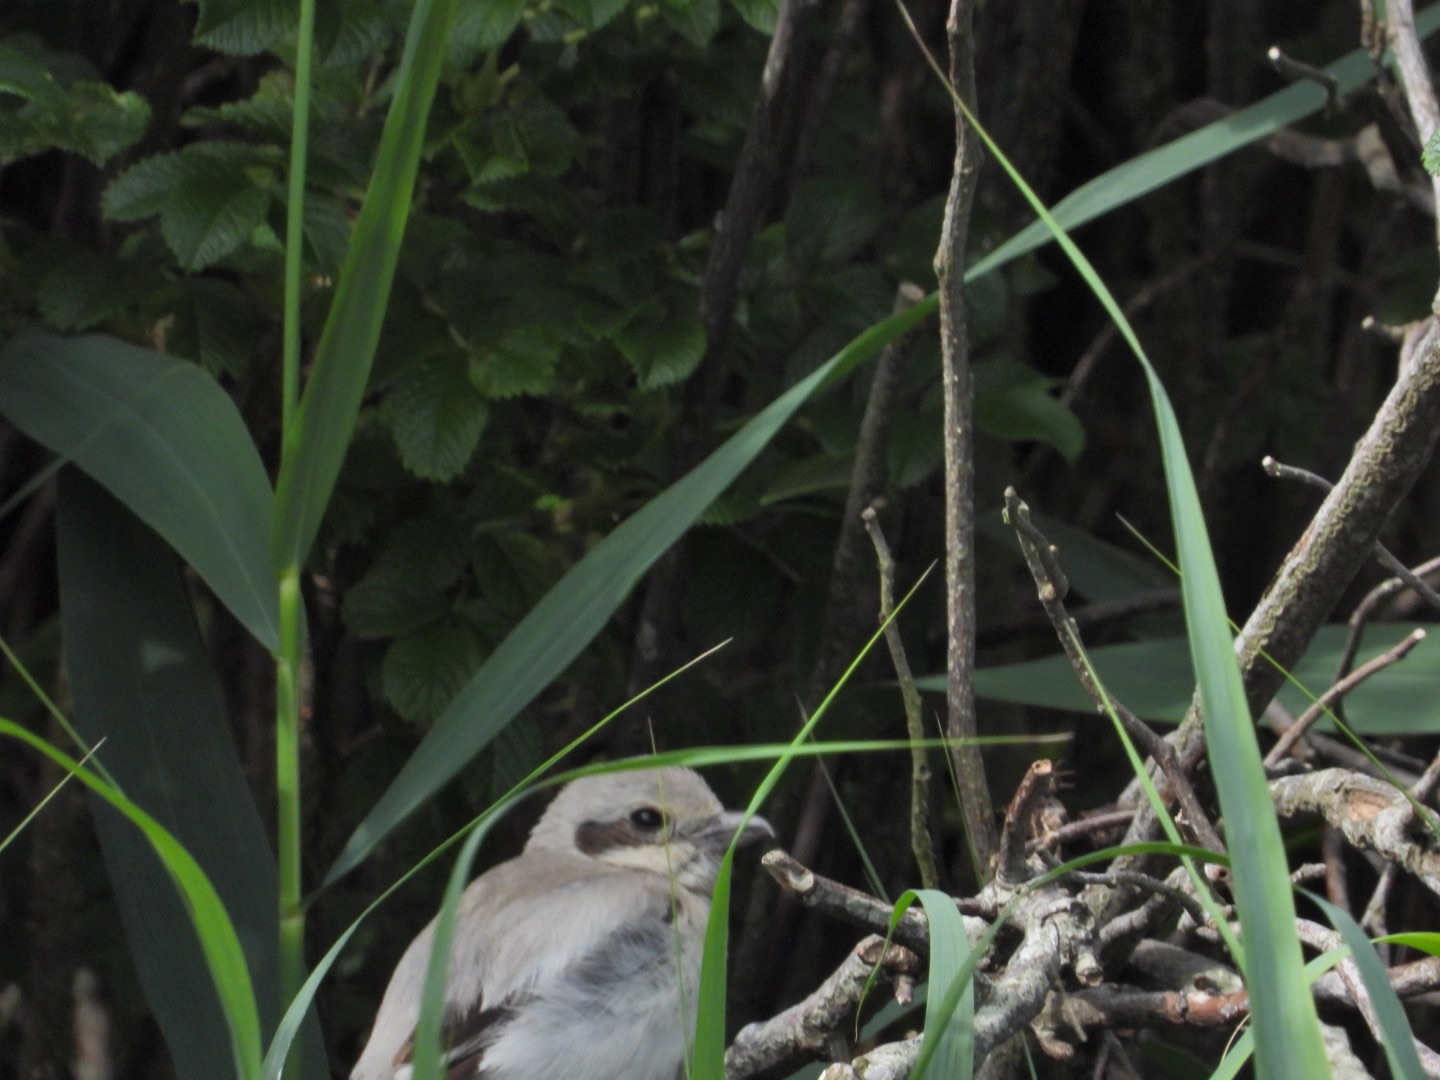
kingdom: Animalia
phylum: Chordata
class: Aves
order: Passeriformes
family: Laniidae
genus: Lanius
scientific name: Lanius excubitor
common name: Ørkentornskade
